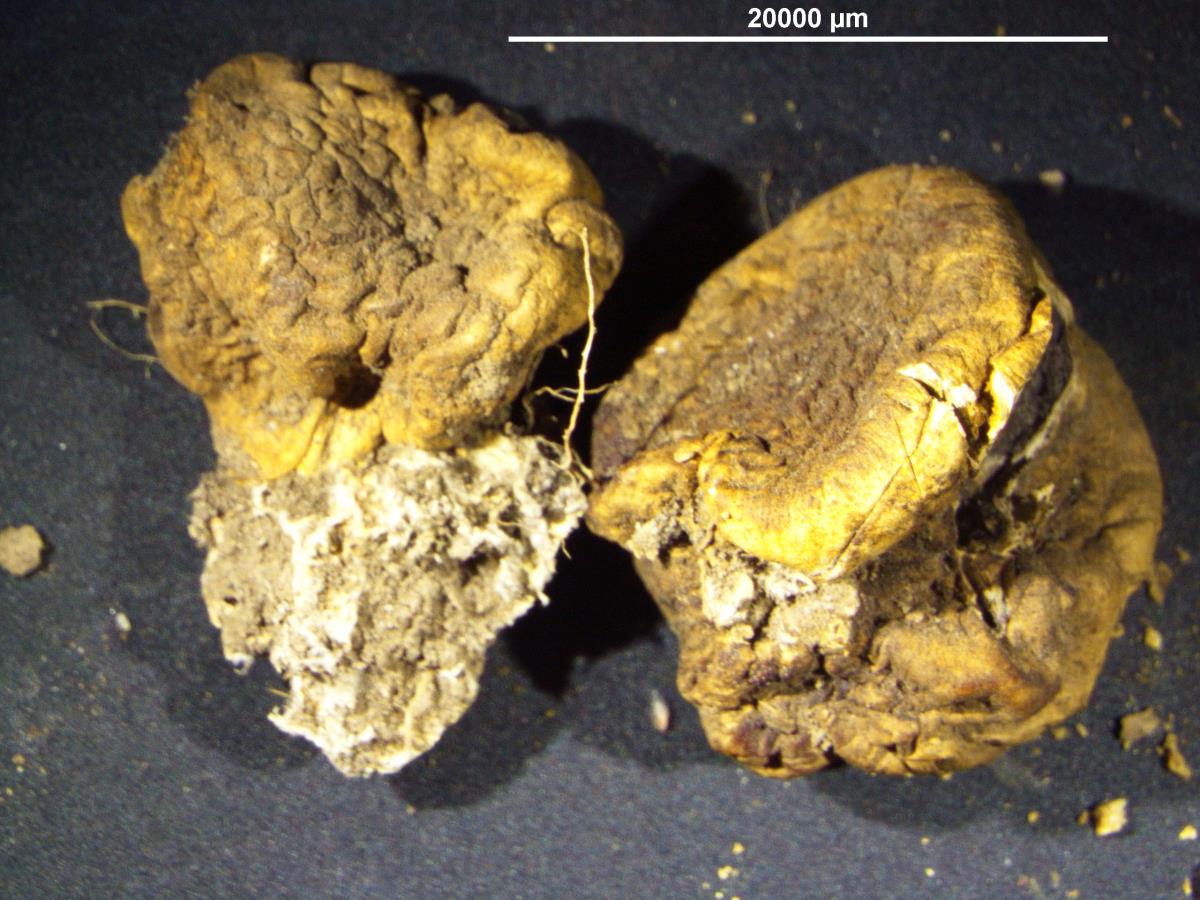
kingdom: Fungi
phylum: Basidiomycota
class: Agaricomycetes
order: Boletales
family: Sclerodermataceae
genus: Scleroderma
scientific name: Scleroderma flavidum
